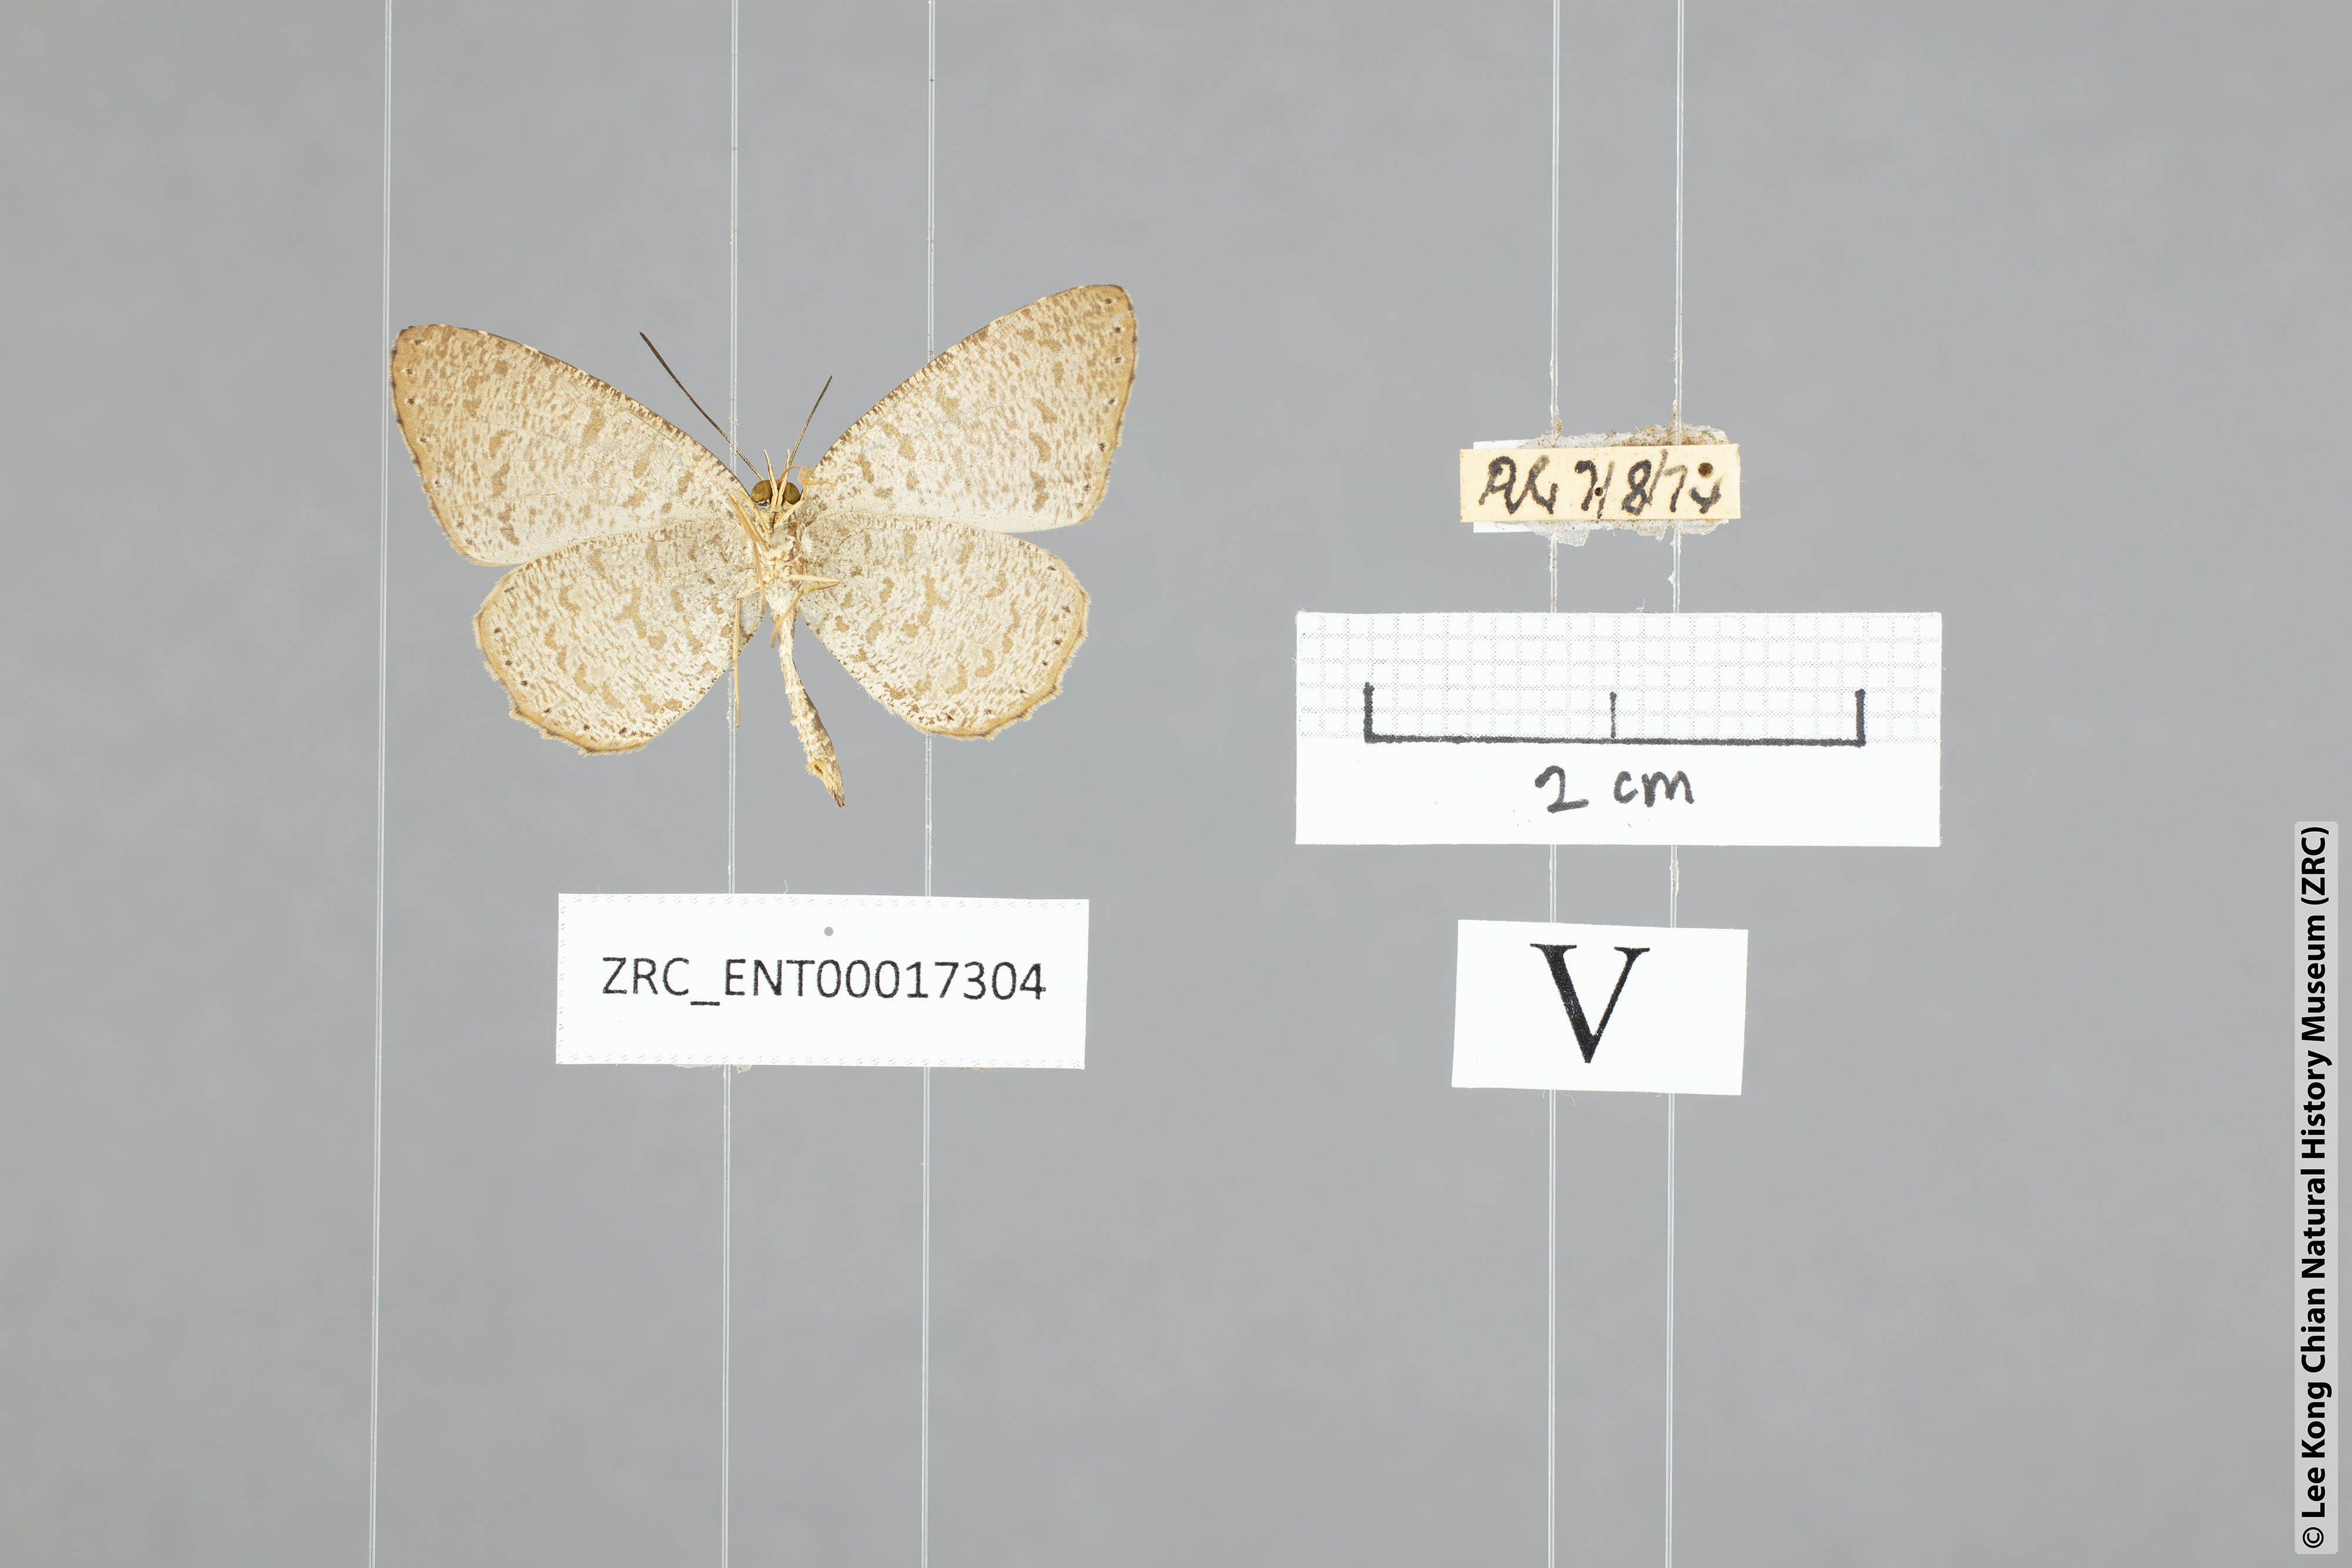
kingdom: Animalia
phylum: Arthropoda
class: Insecta
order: Lepidoptera
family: Lycaenidae
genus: Allotinus
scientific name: Allotinus strigatus
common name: Small malayan darkie
